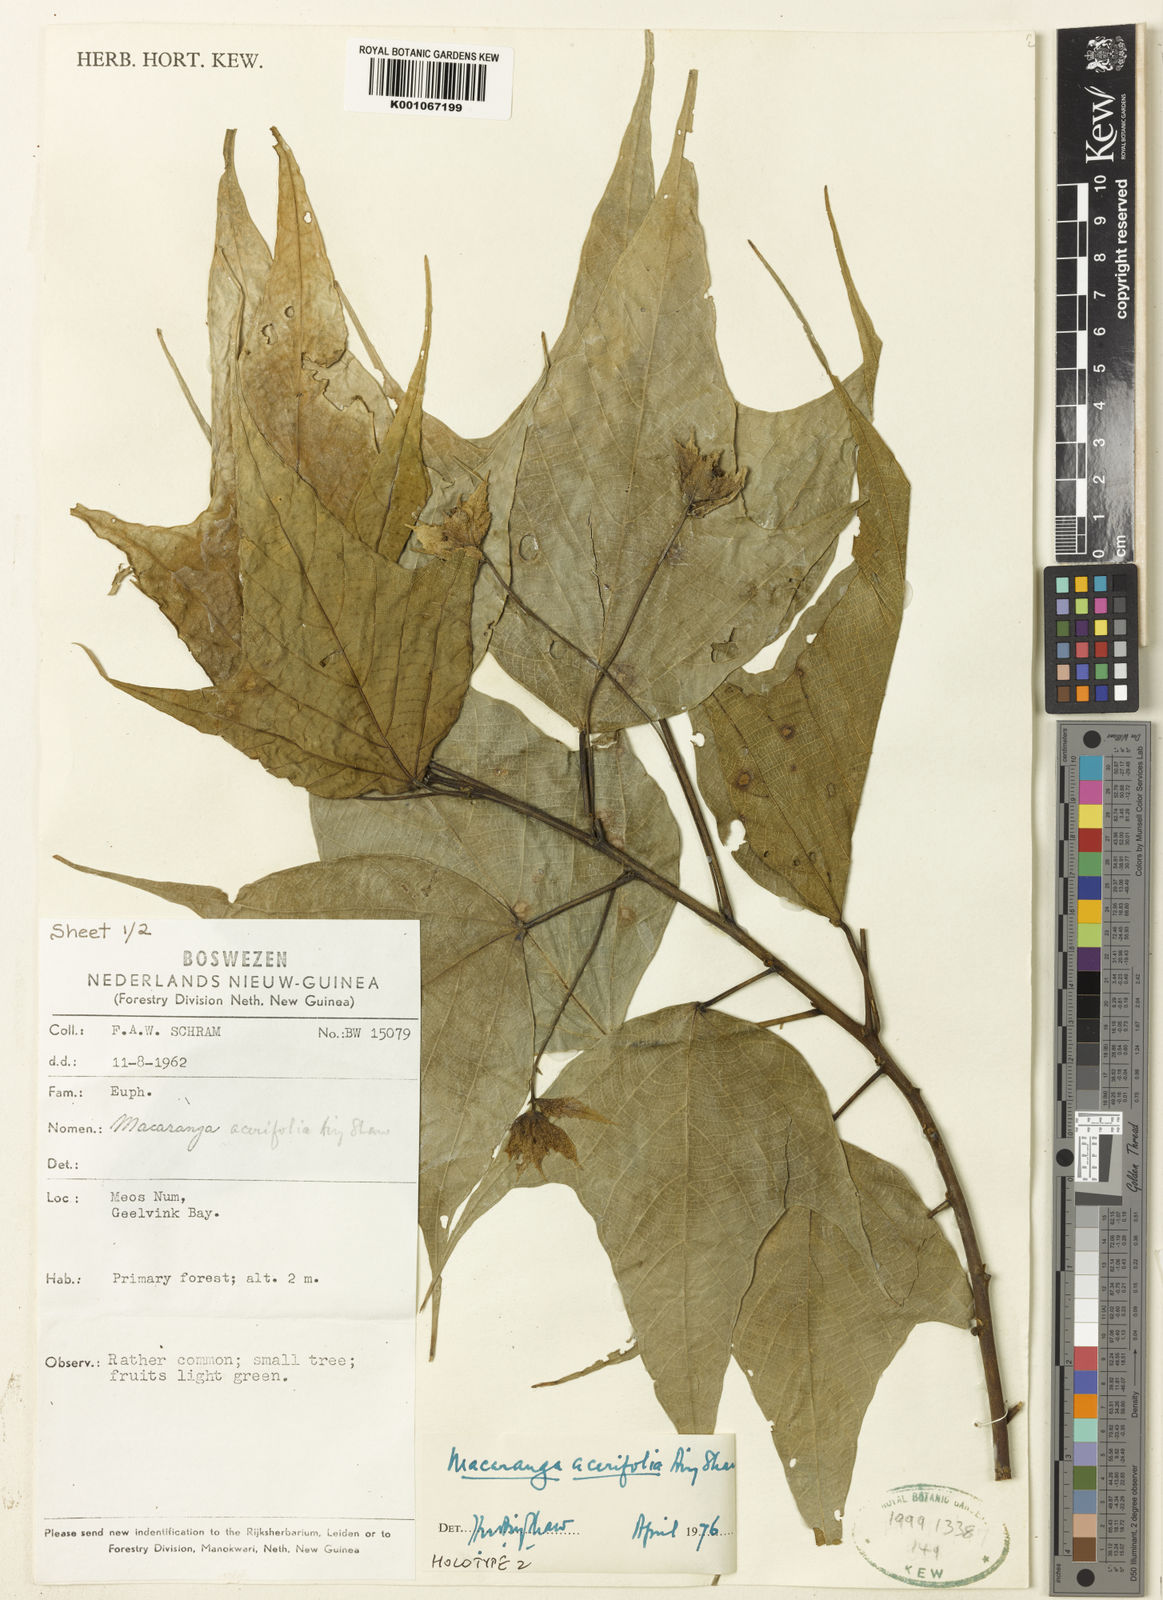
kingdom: Plantae
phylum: Tracheophyta
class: Magnoliopsida
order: Malpighiales
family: Euphorbiaceae
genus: Macaranga
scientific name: Macaranga acerifolia
